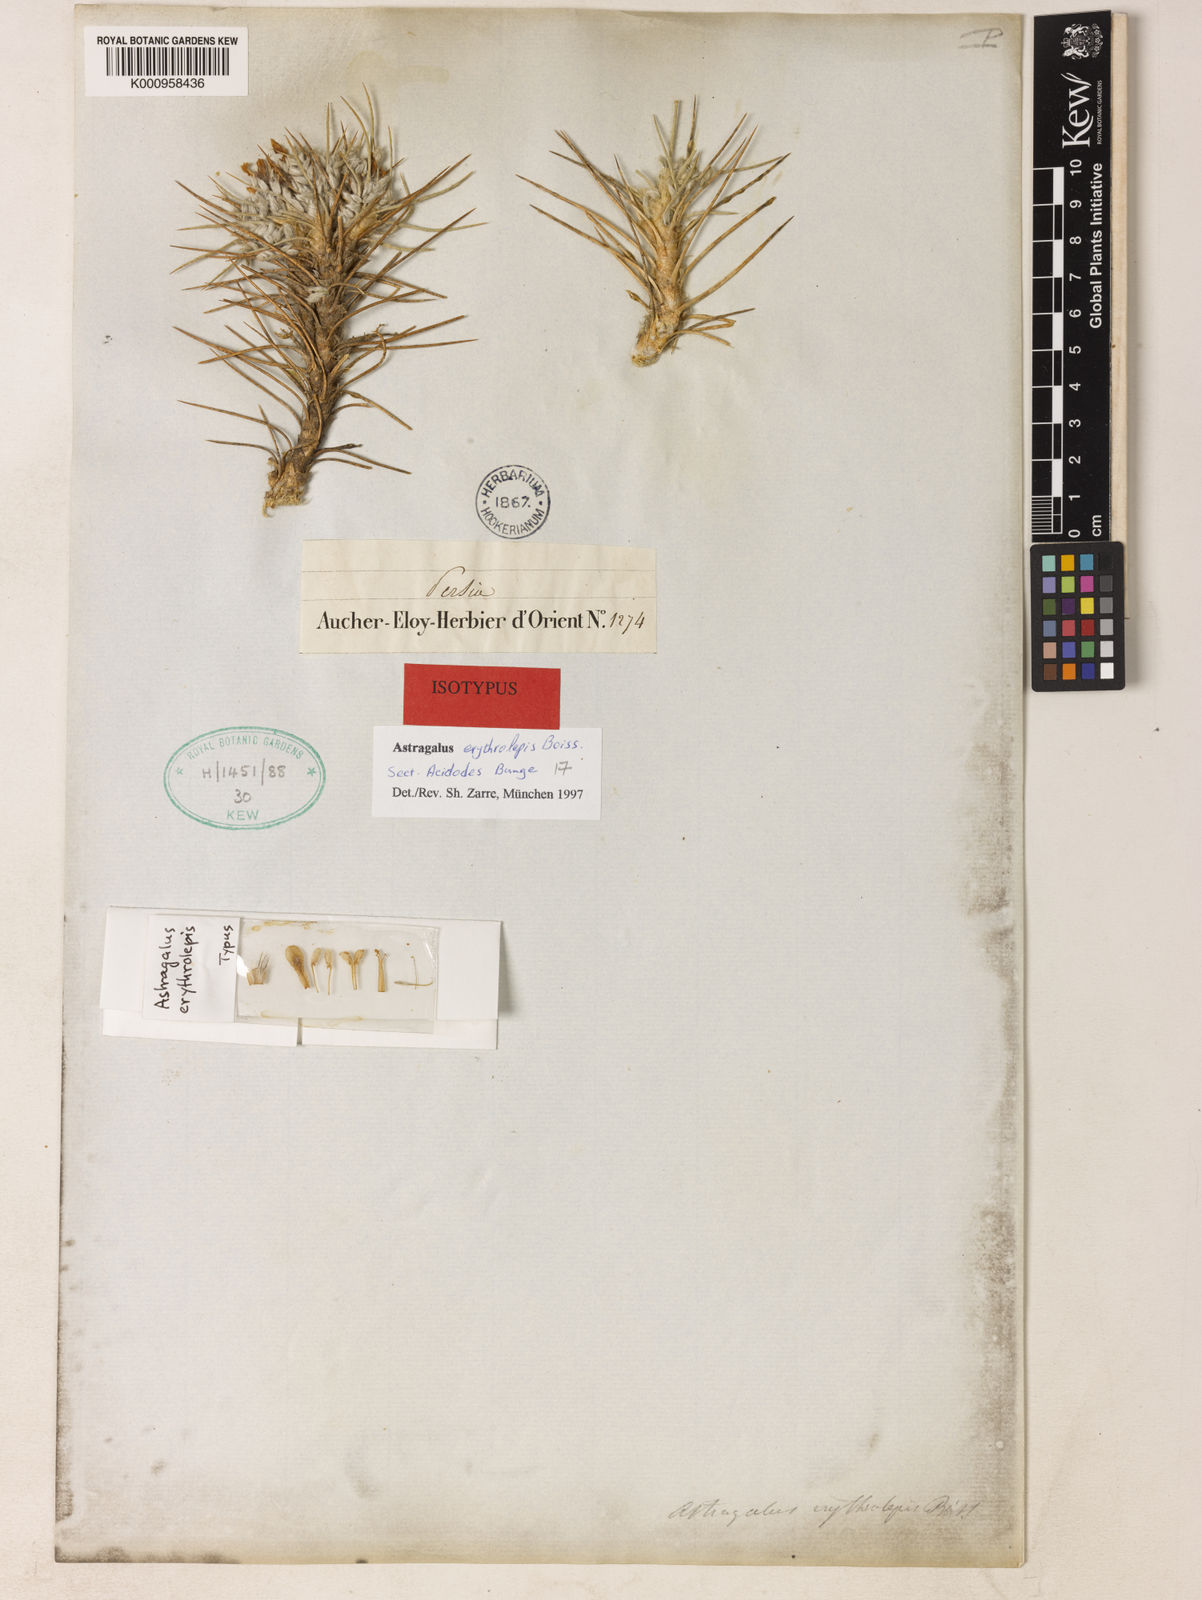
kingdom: Plantae
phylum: Tracheophyta
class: Magnoliopsida
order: Fabales
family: Fabaceae
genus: Astragalus
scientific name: Astragalus
